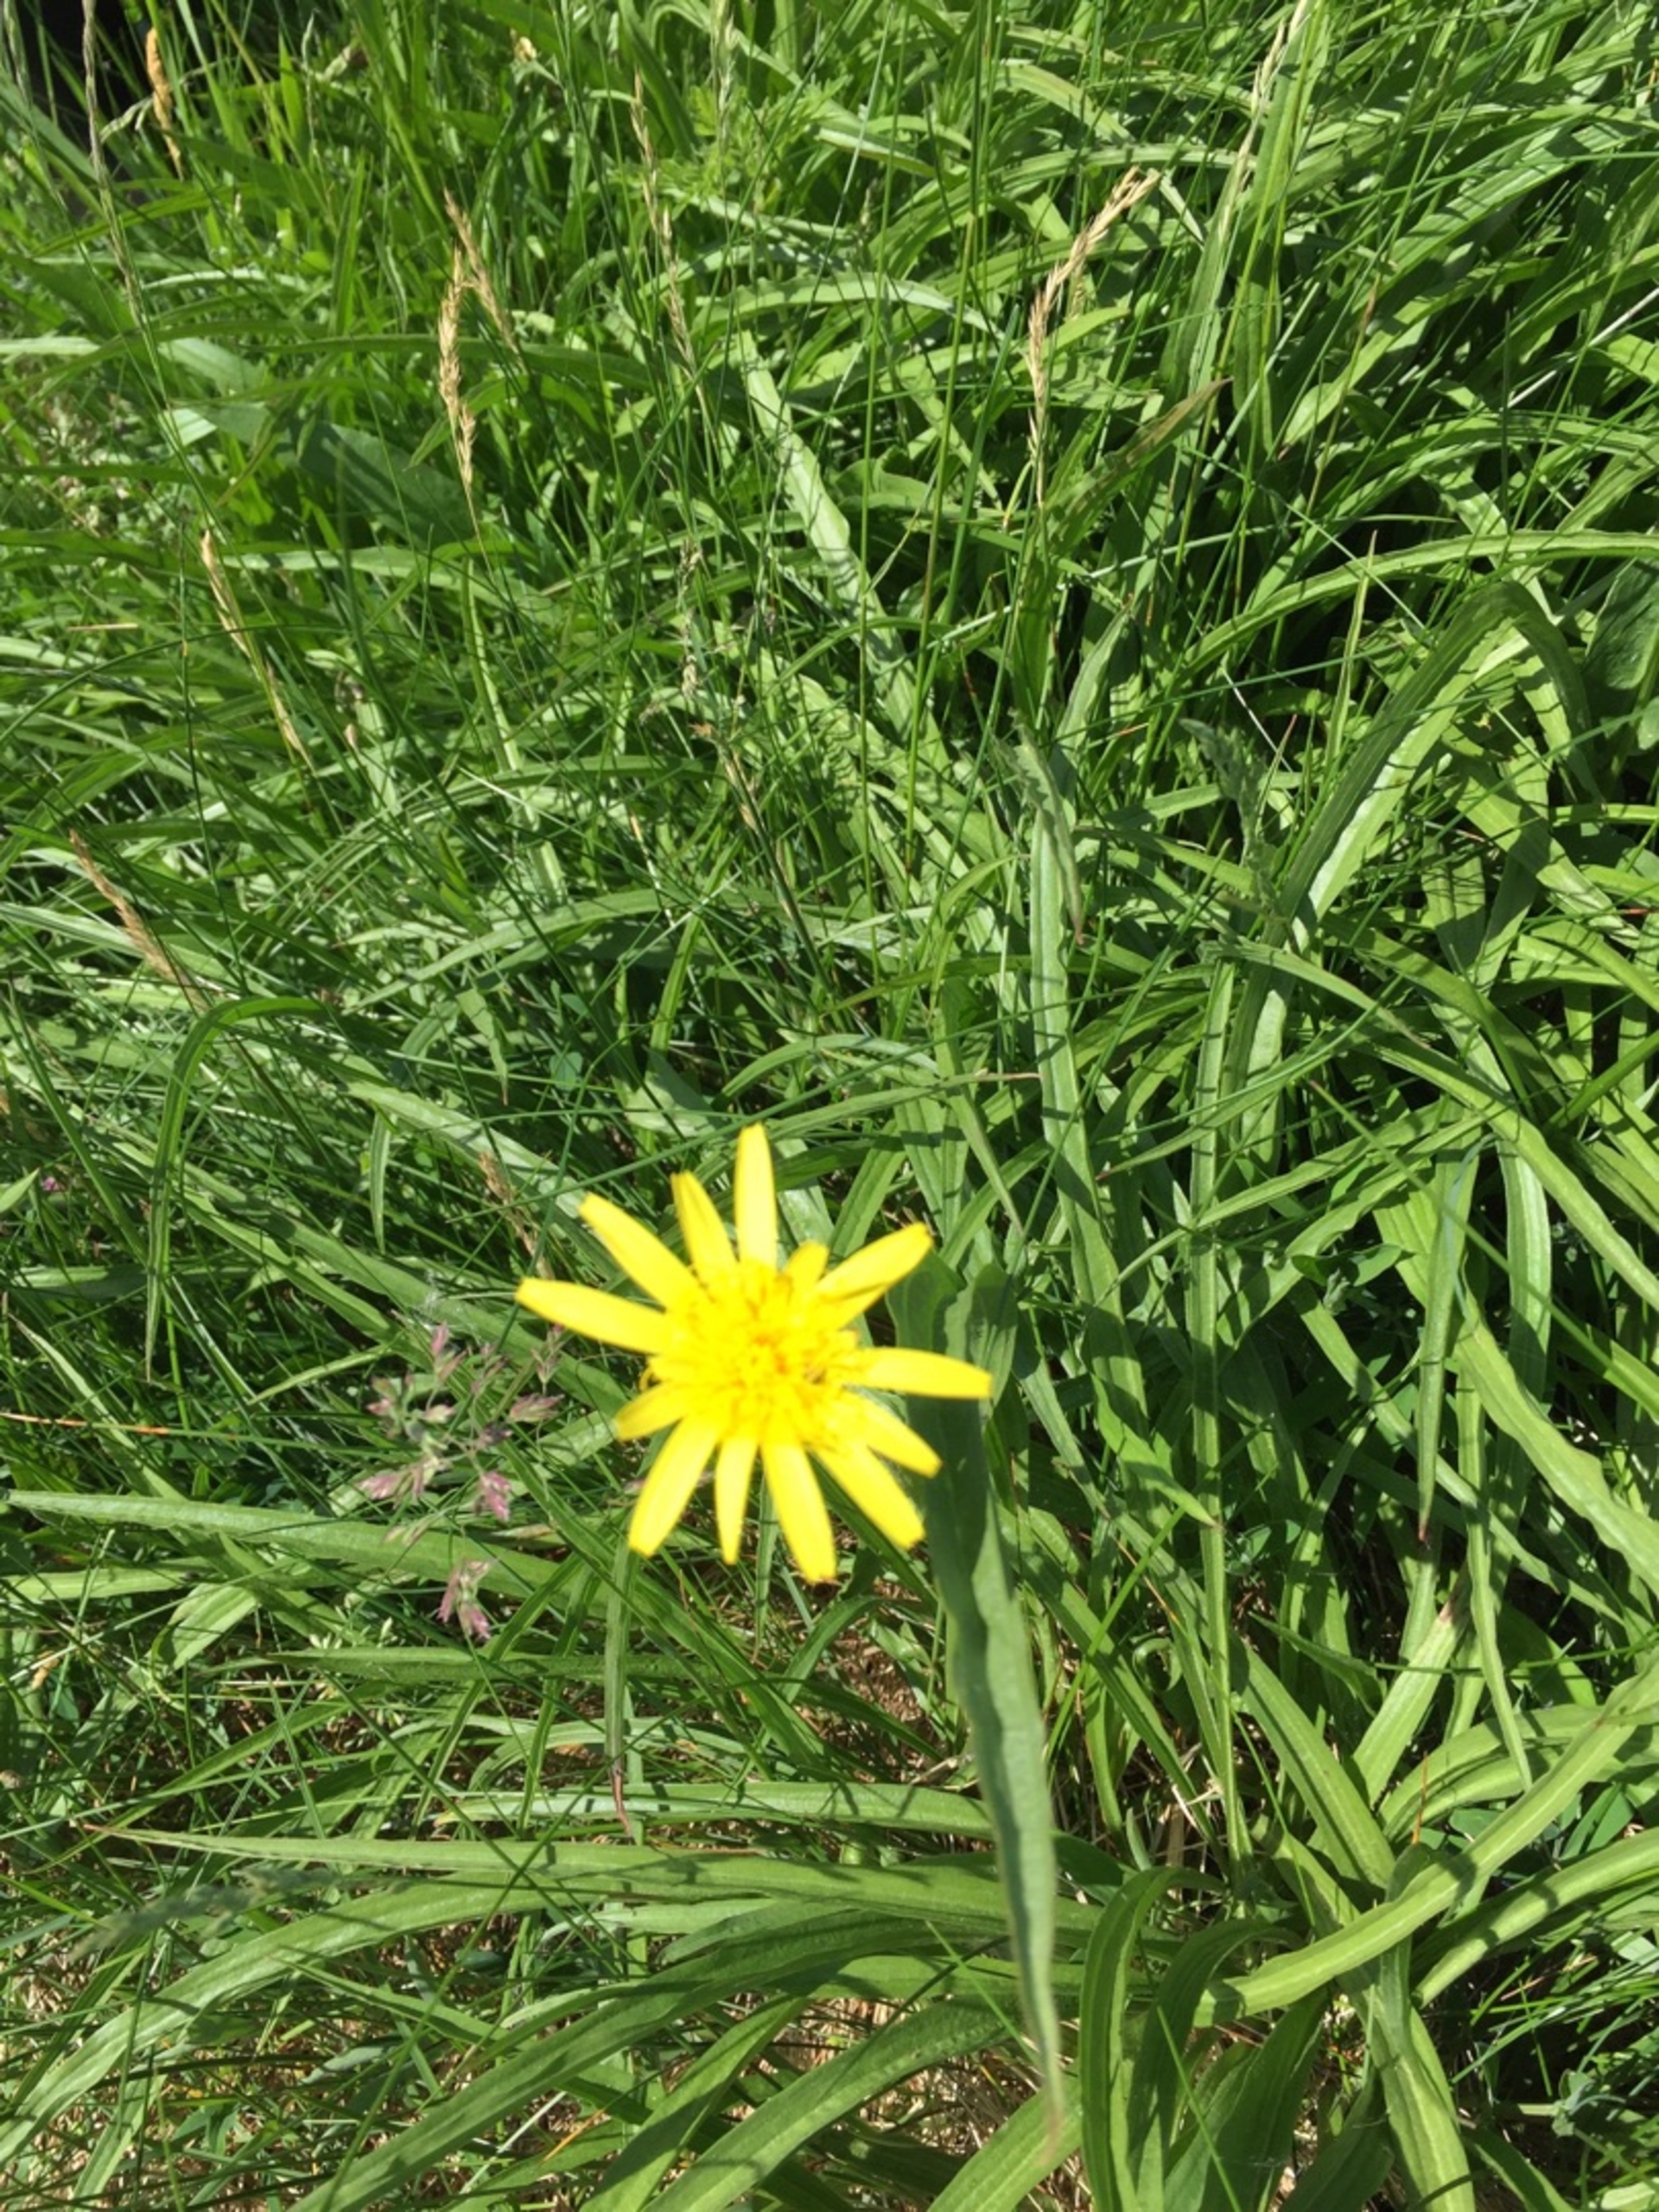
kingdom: Plantae
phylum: Tracheophyta
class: Magnoliopsida
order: Asterales
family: Asteraceae
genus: Scorzonera
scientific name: Scorzonera humilis
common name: Lav skorsoner
